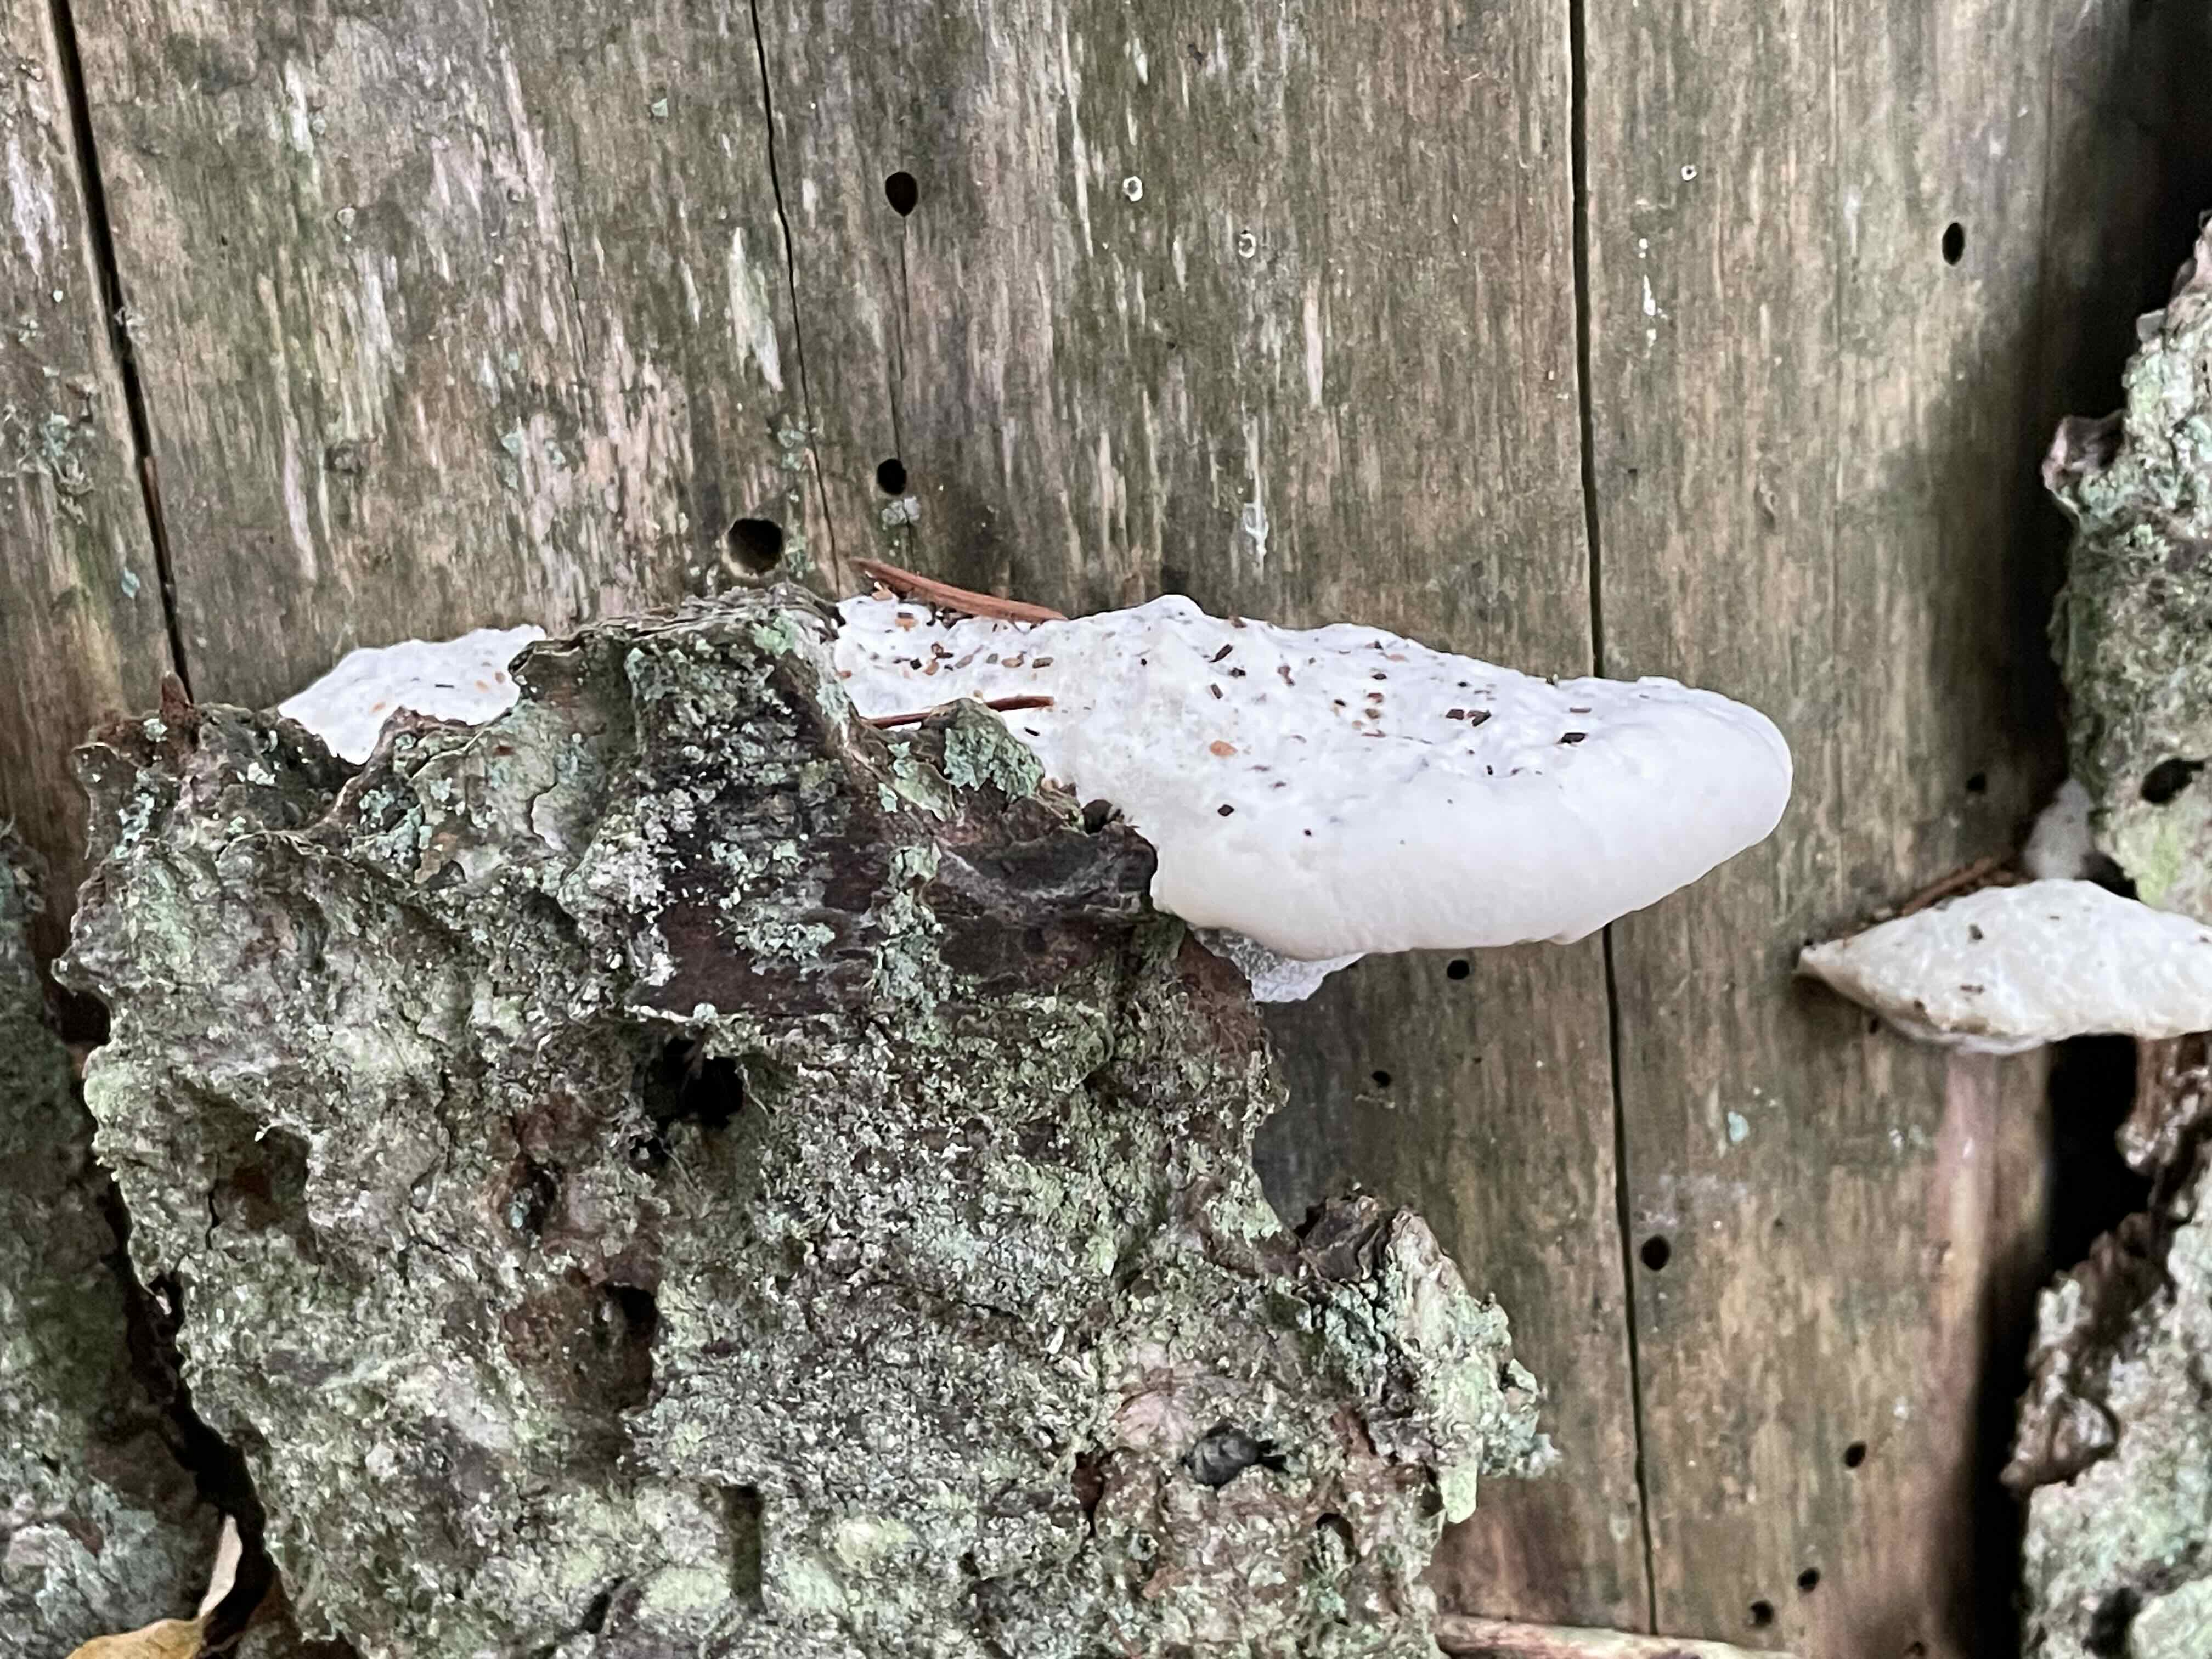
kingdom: Fungi
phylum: Basidiomycota
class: Agaricomycetes
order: Polyporales
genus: Amaropostia
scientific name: Amaropostia stiptica
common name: bitter kødporesvamp
